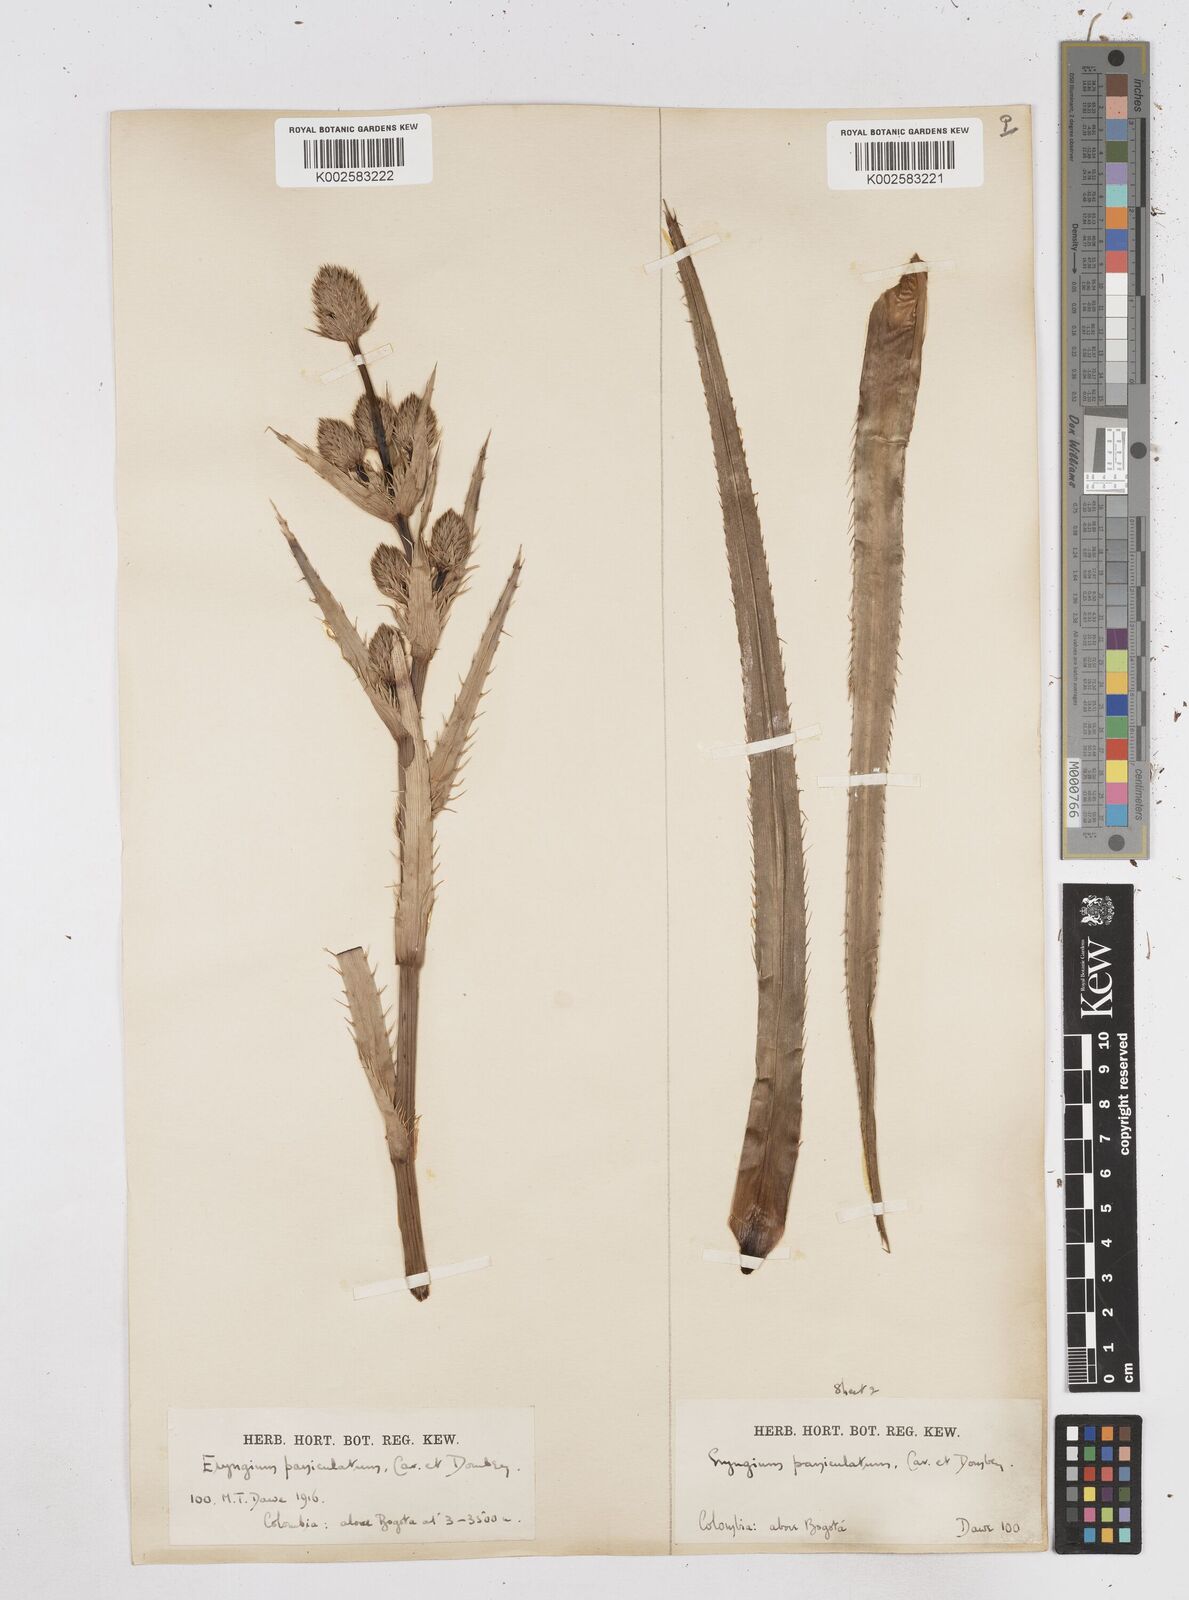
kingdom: Plantae
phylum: Tracheophyta
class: Magnoliopsida
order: Apiales
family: Apiaceae
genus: Eryngium
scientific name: Eryngium humboldtii
